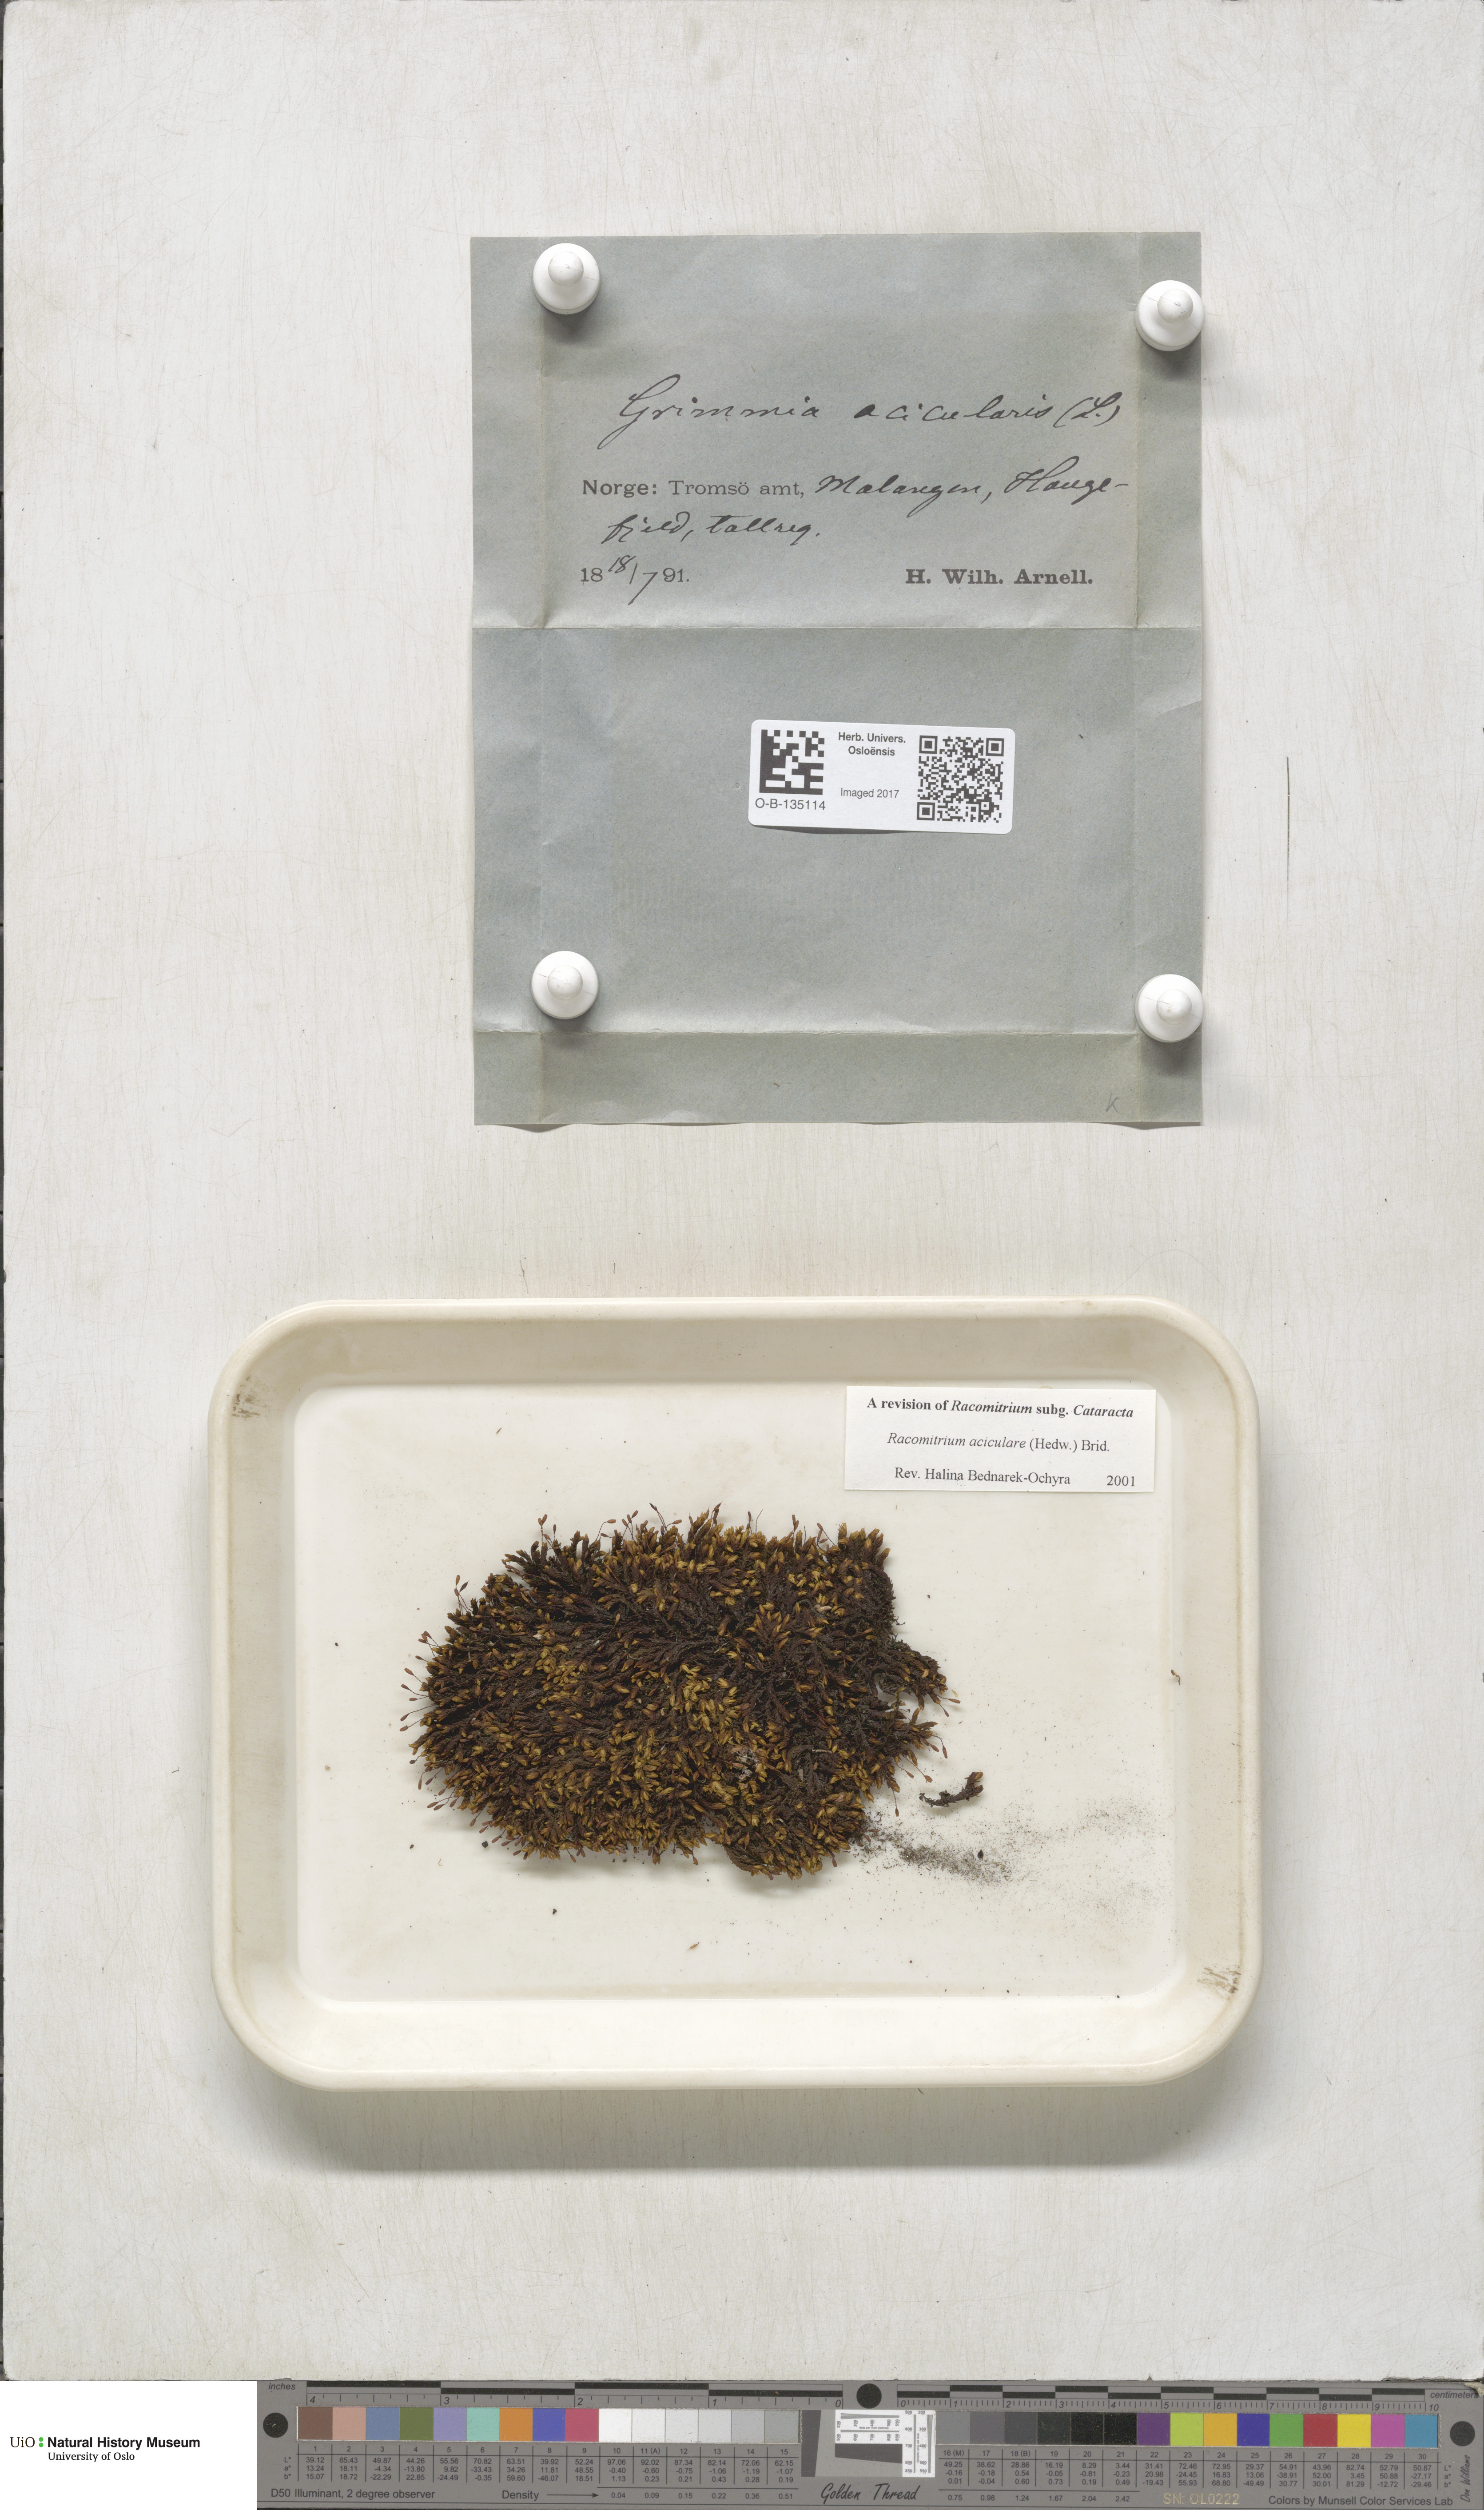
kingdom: Plantae
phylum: Bryophyta
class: Bryopsida
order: Grimmiales
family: Grimmiaceae
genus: Codriophorus
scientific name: Codriophorus acicularis
